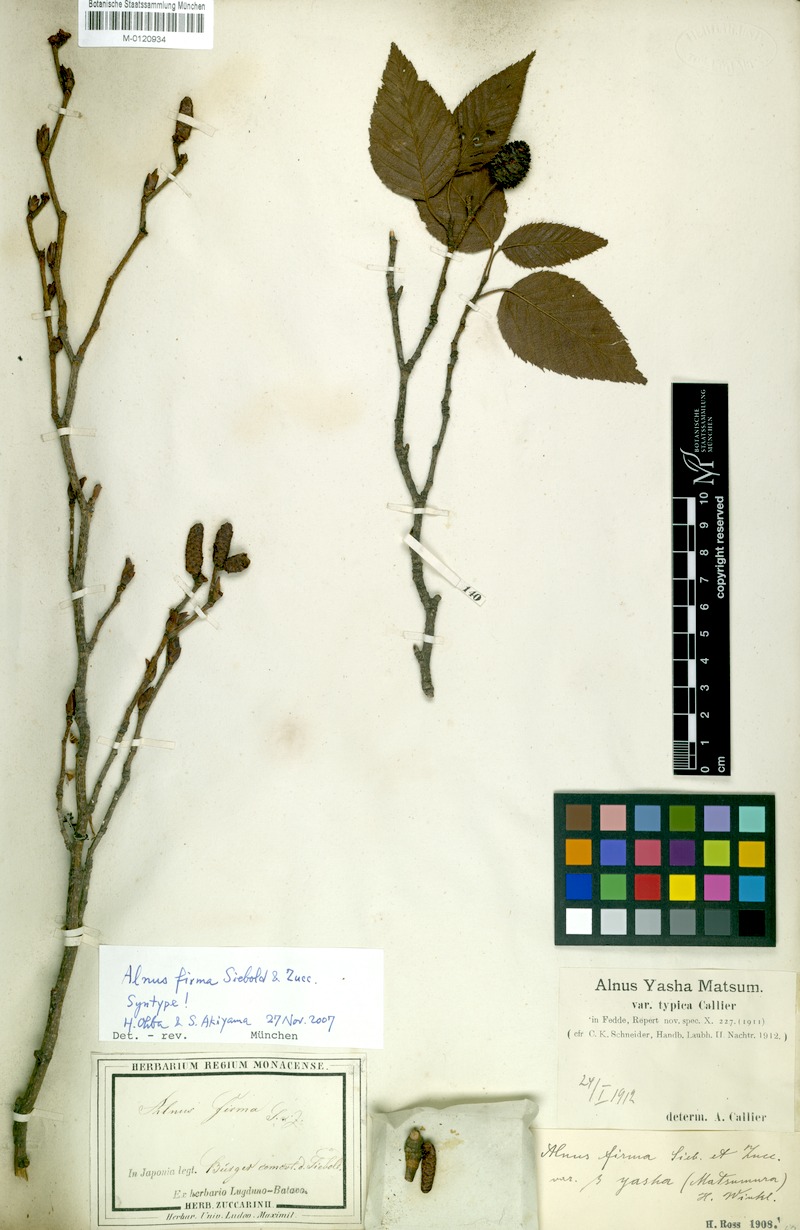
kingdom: Plantae
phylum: Tracheophyta
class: Magnoliopsida
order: Fagales
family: Betulaceae
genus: Alnus
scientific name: Alnus firma
